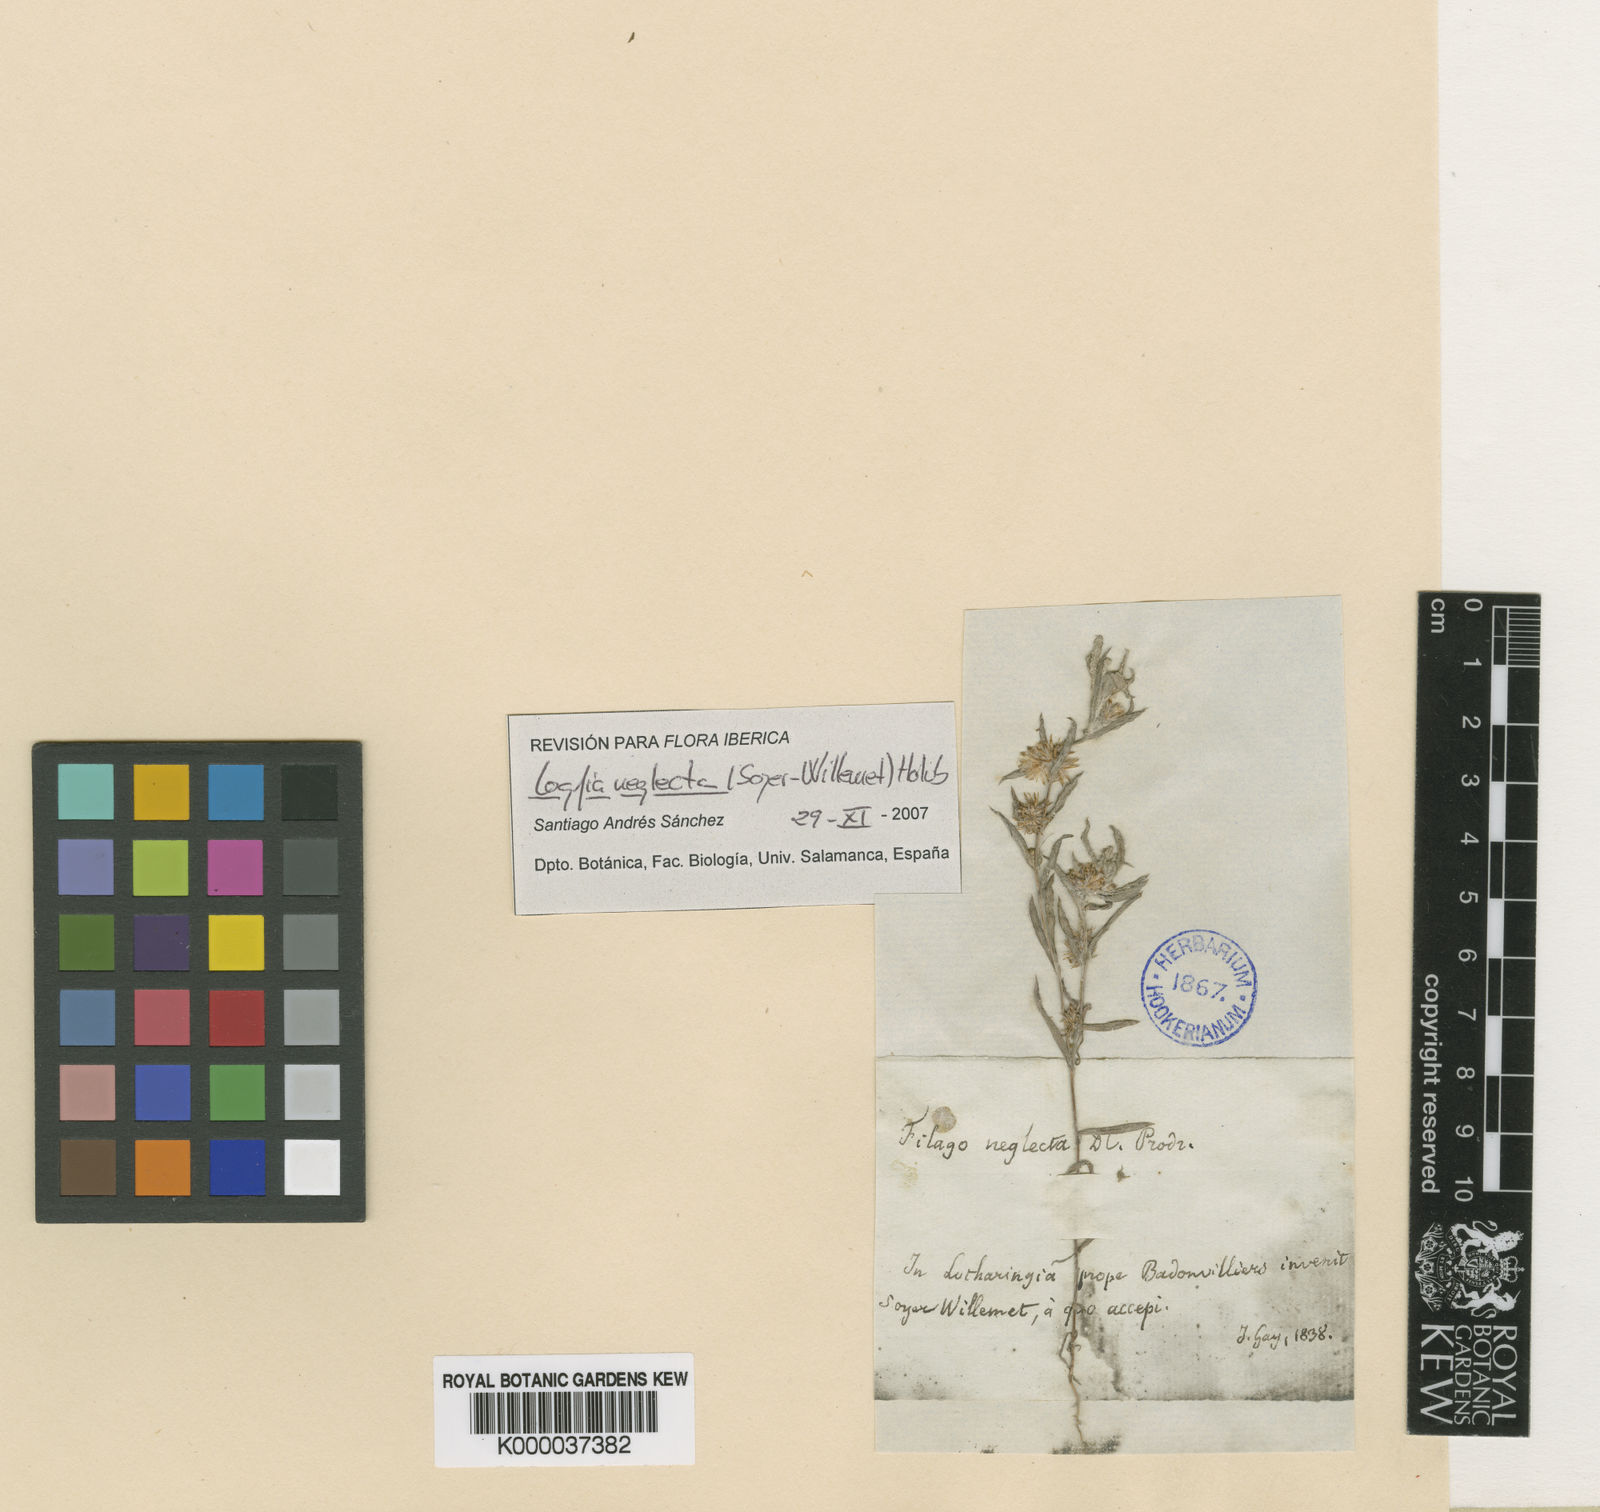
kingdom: Plantae
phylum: Tracheophyta
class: Magnoliopsida
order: Asterales
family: Asteraceae
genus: Logfia
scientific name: Logfia neglecta
